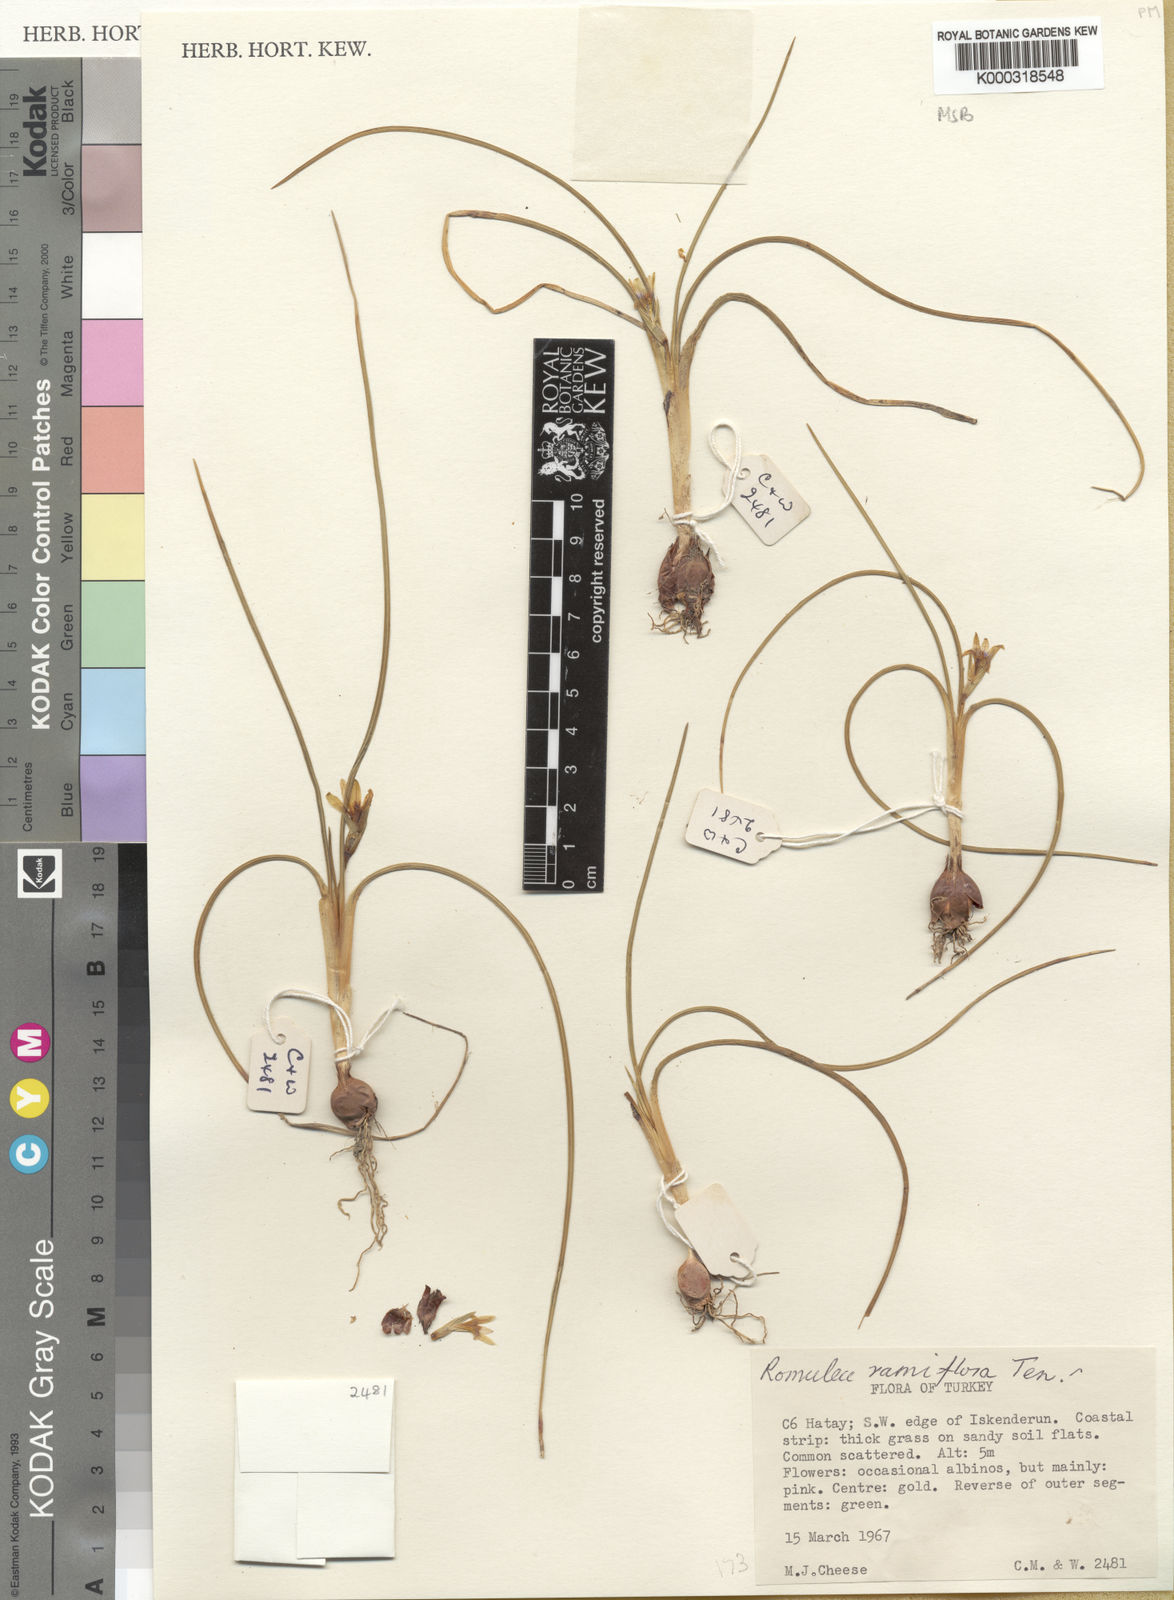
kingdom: Plantae
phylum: Tracheophyta
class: Liliopsida
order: Asparagales
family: Iridaceae
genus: Romulea
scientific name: Romulea ramiflora
